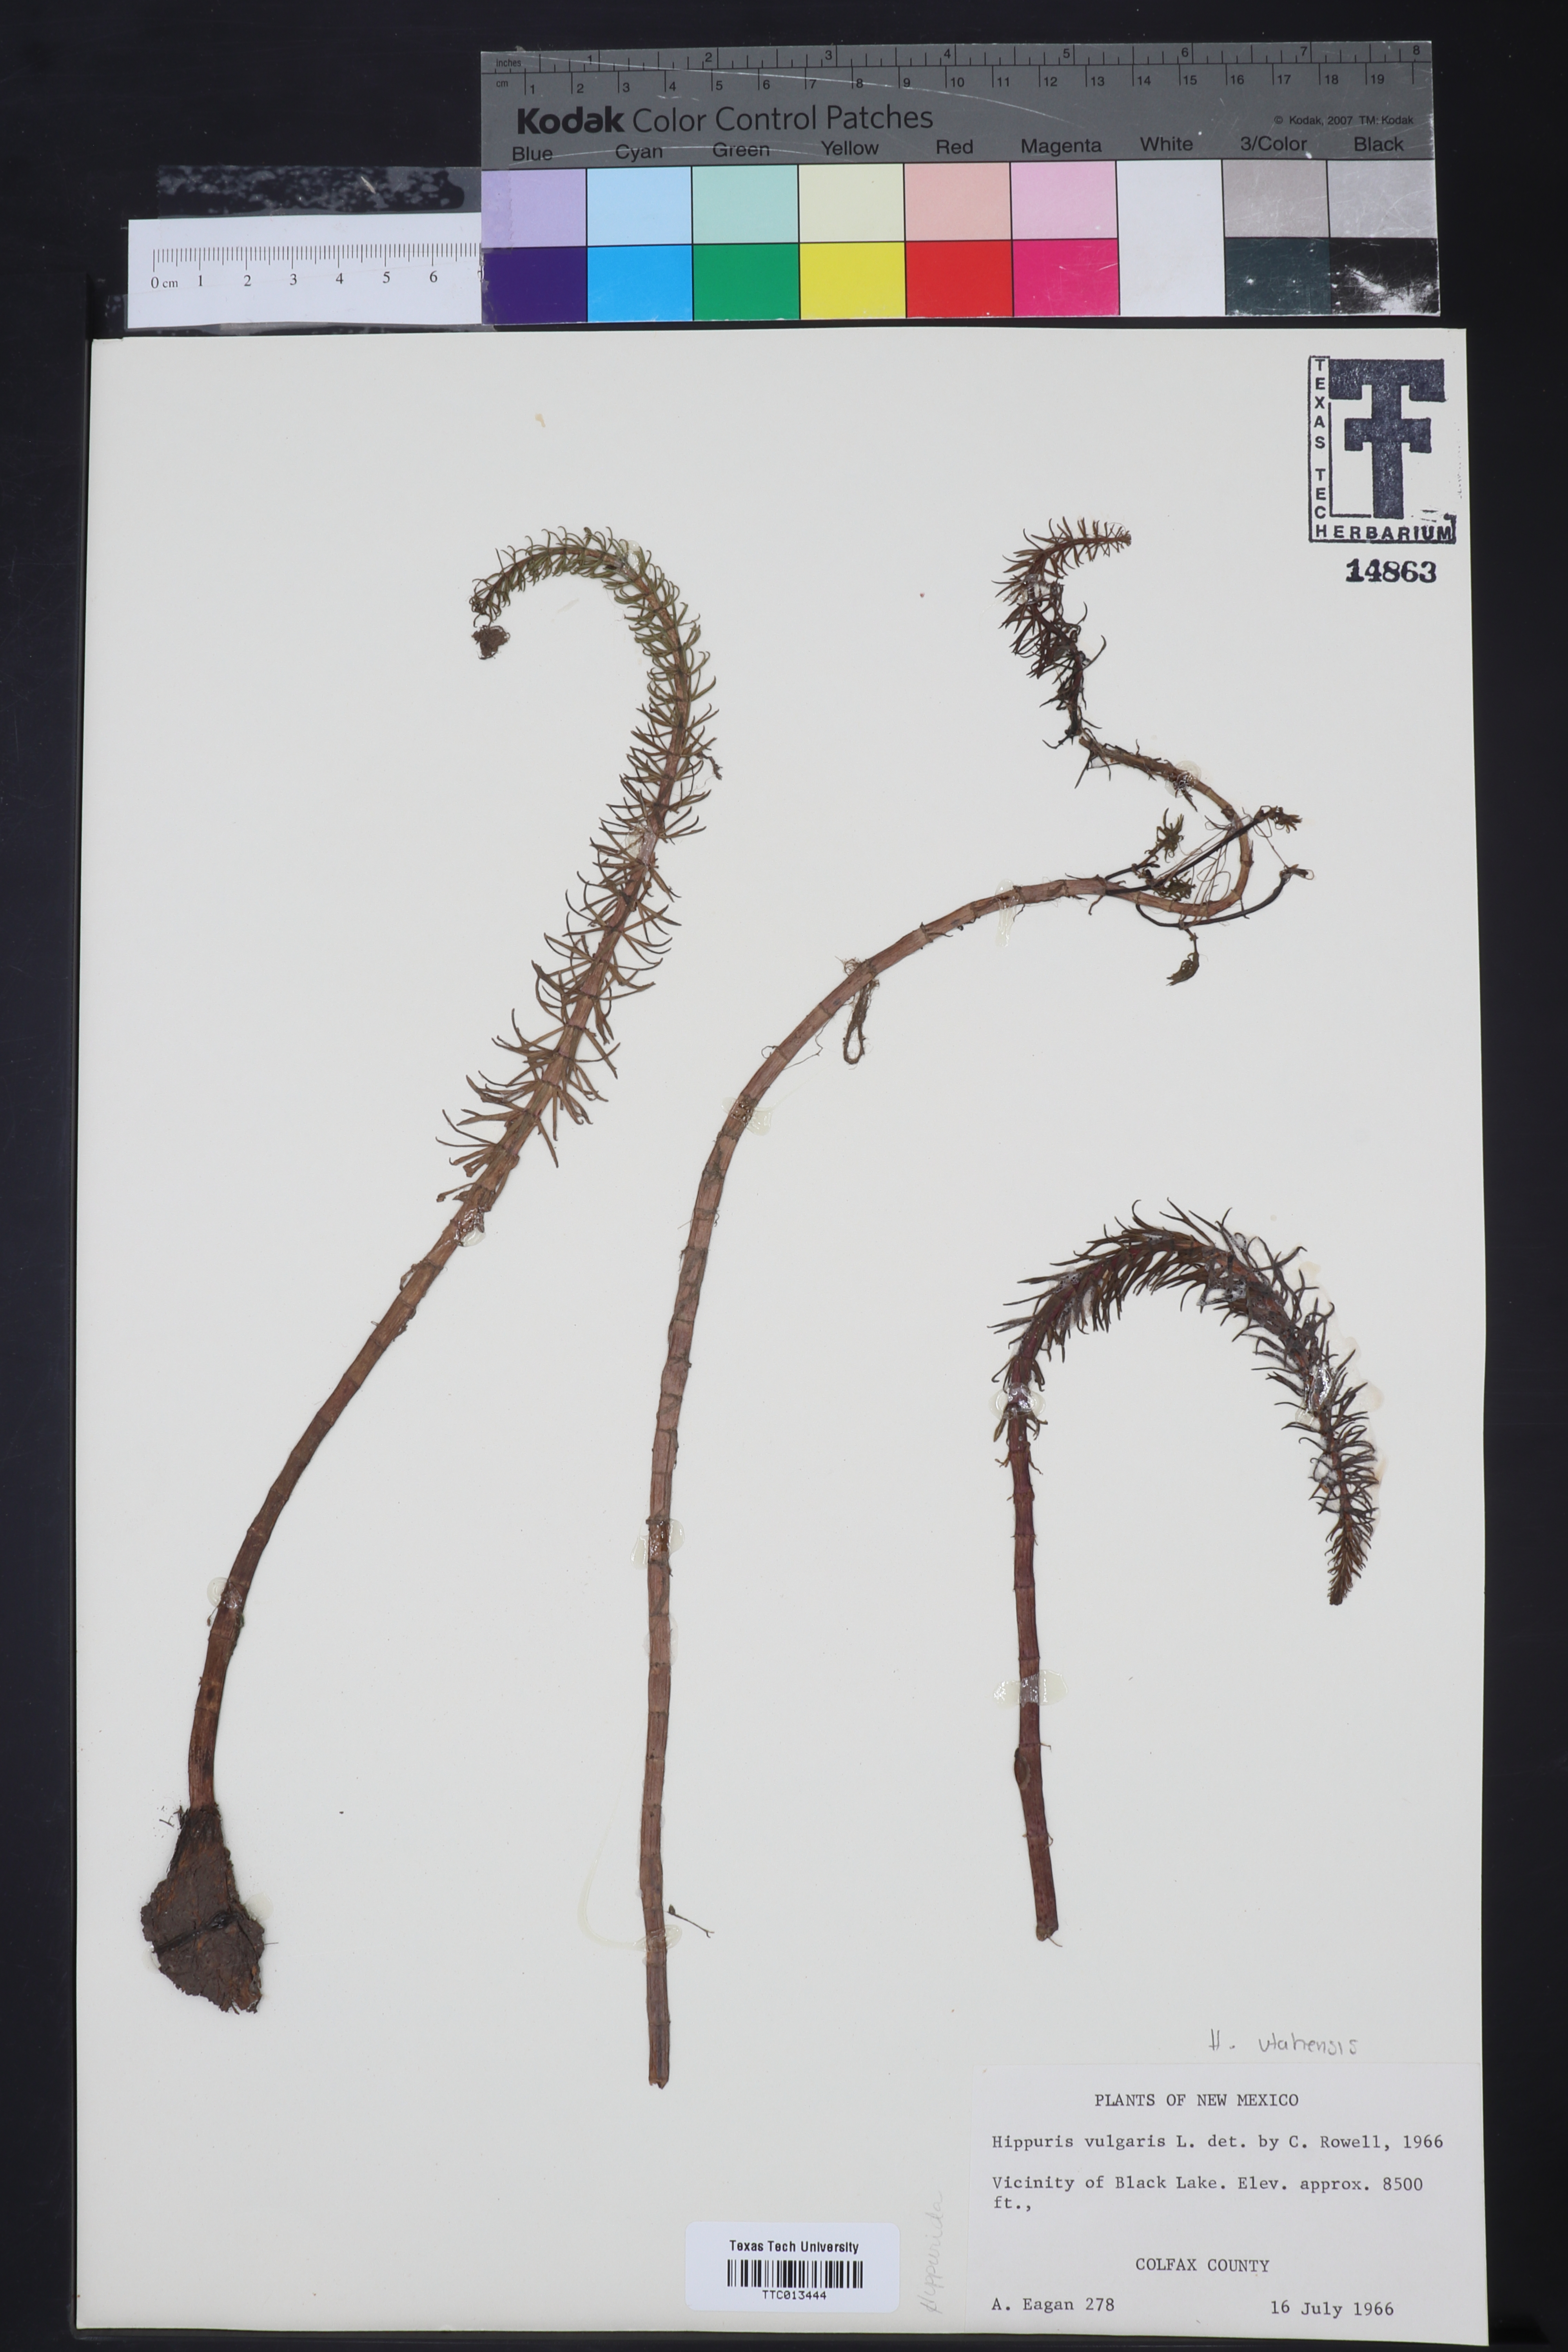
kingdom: Plantae
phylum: Tracheophyta
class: Magnoliopsida
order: Lamiales
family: Plantaginaceae
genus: Hippuris
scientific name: Hippuris vulgaris
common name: Mare's-tail
